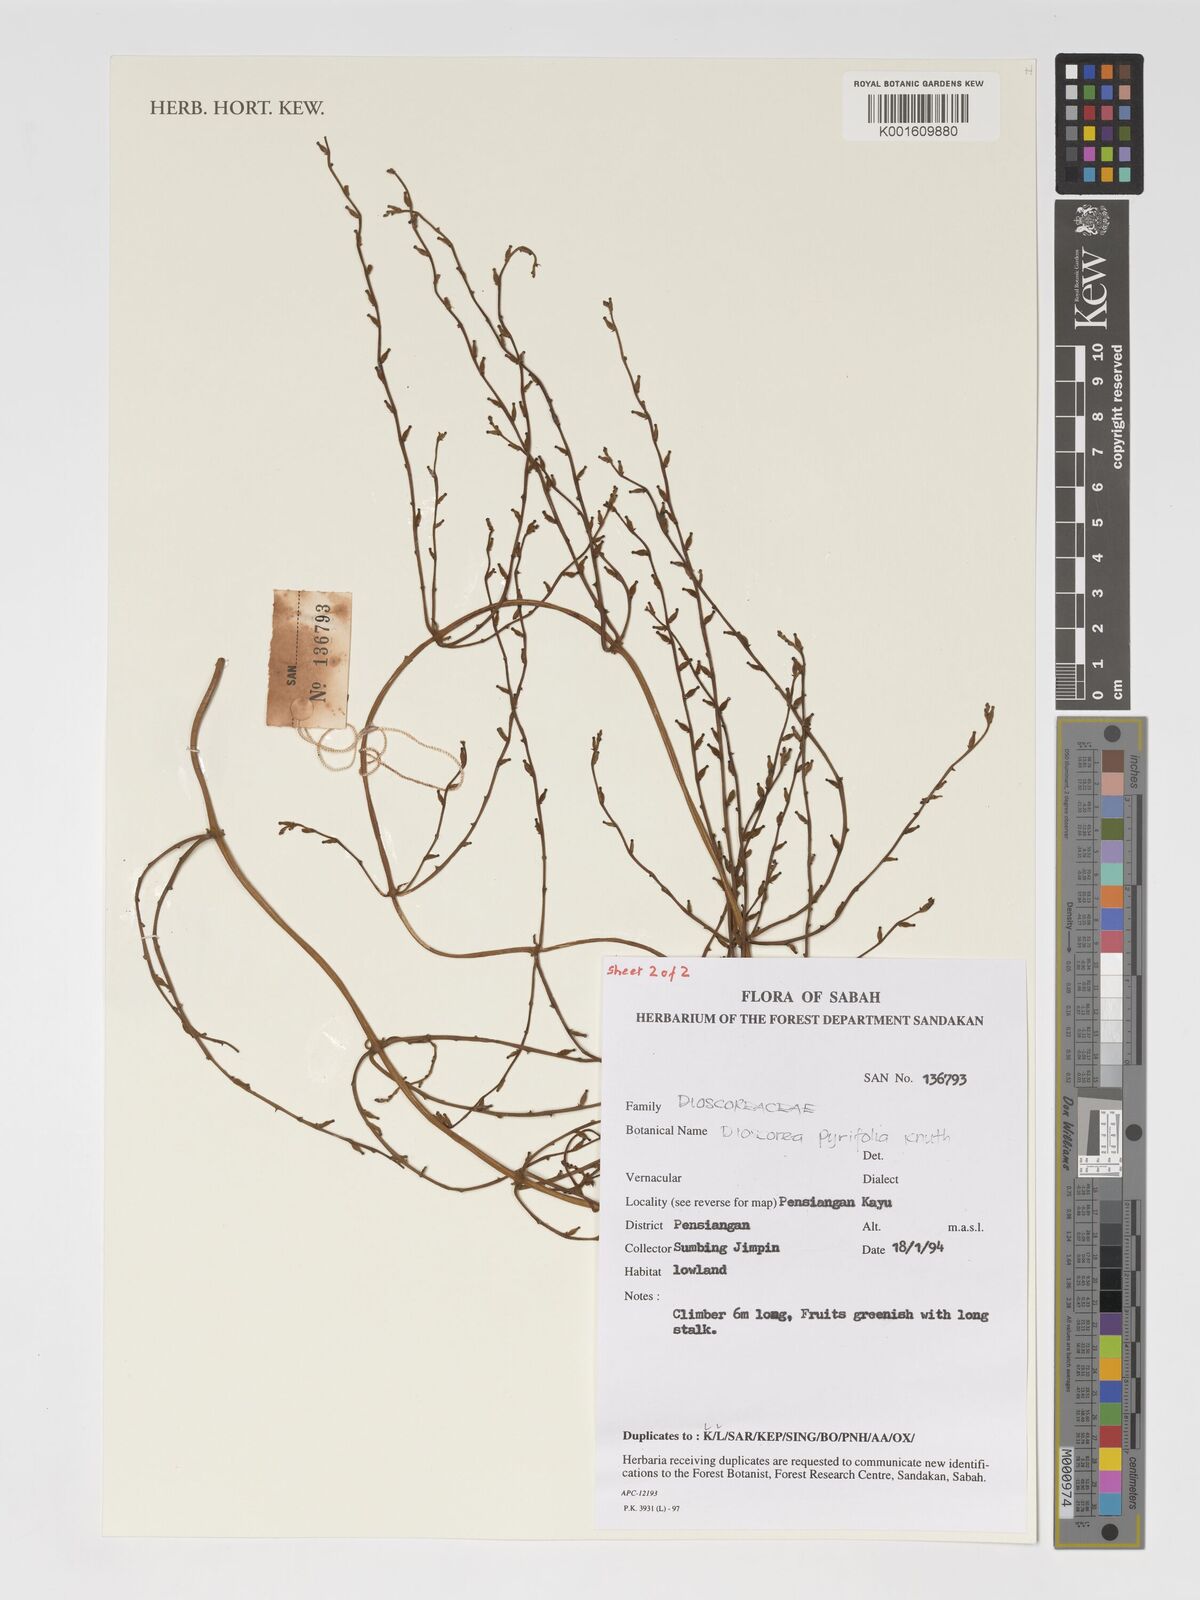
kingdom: Plantae
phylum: Tracheophyta
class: Liliopsida
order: Dioscoreales
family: Dioscoreaceae
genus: Dioscorea
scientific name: Dioscorea pyrifolia
